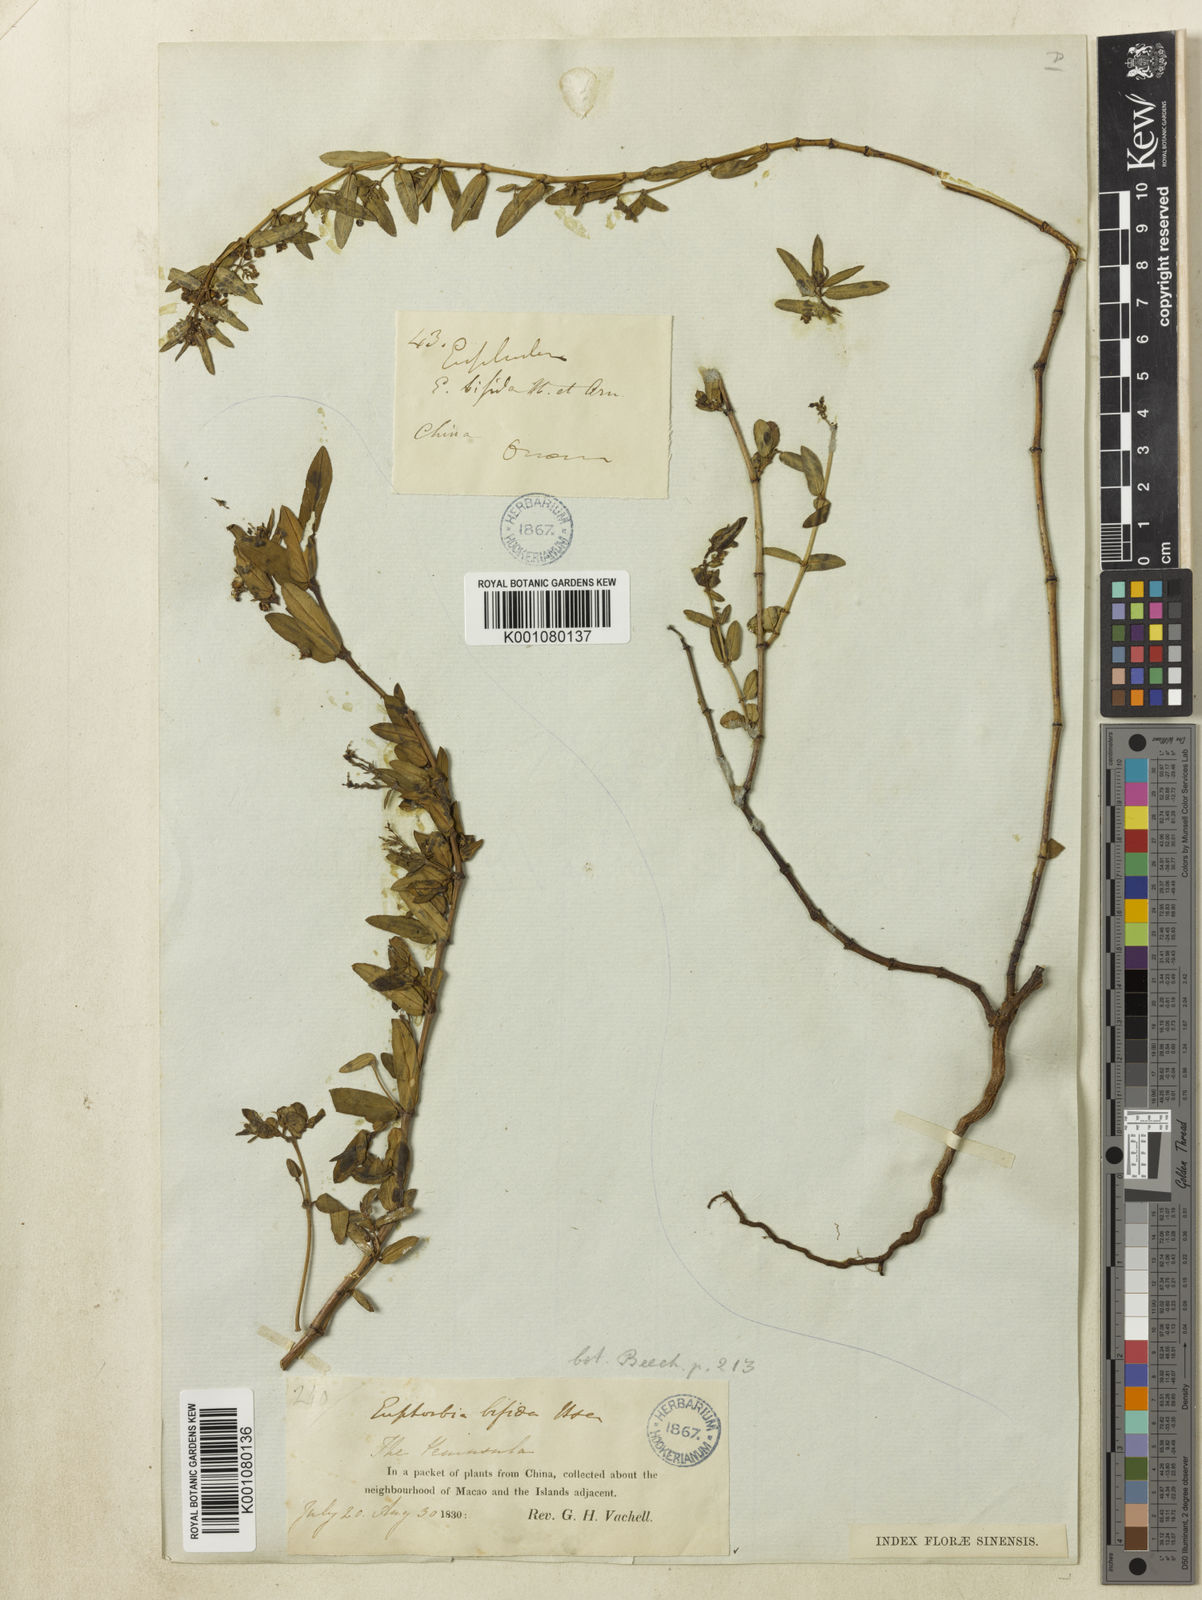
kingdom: Plantae
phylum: Tracheophyta
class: Magnoliopsida
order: Malpighiales
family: Euphorbiaceae
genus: Euphorbia
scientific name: Euphorbia bifida
